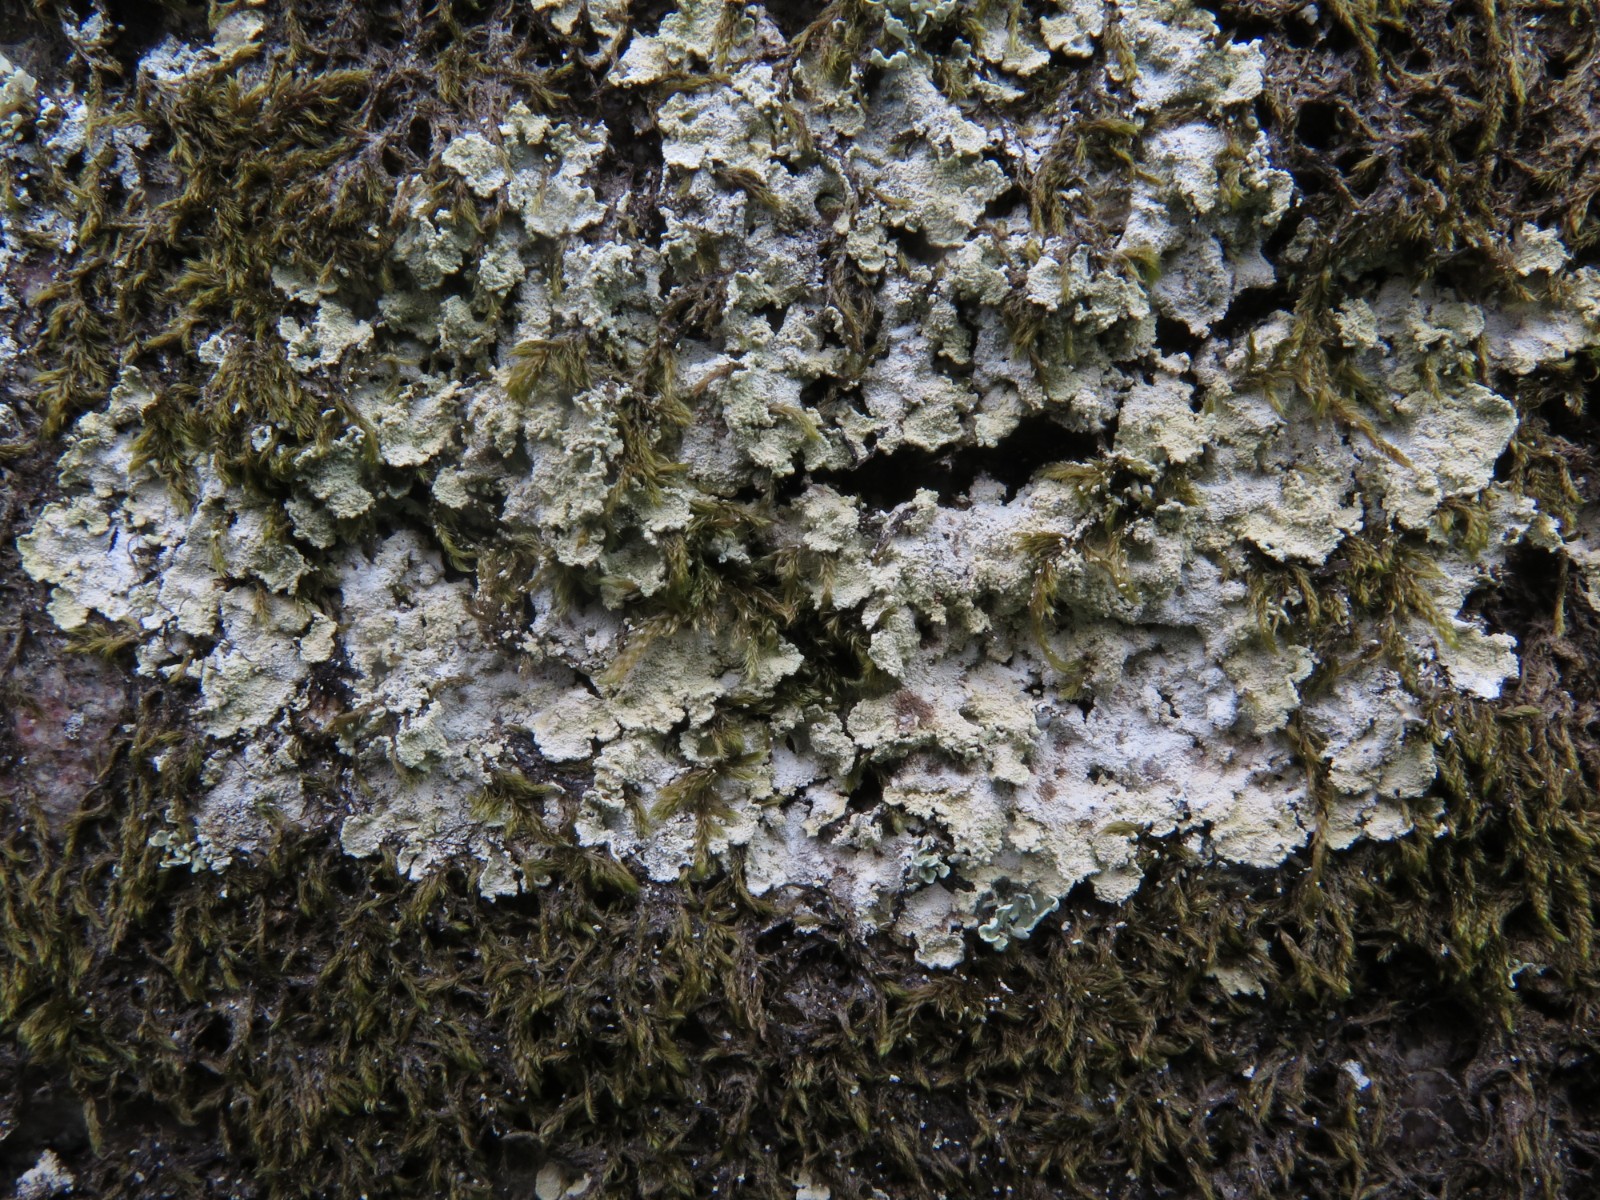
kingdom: Fungi
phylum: Ascomycota
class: Lecanoromycetes
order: Lecanorales
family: Stereocaulaceae
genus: Lepraria
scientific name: Lepraria membranacea
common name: bredfliget støvlav
